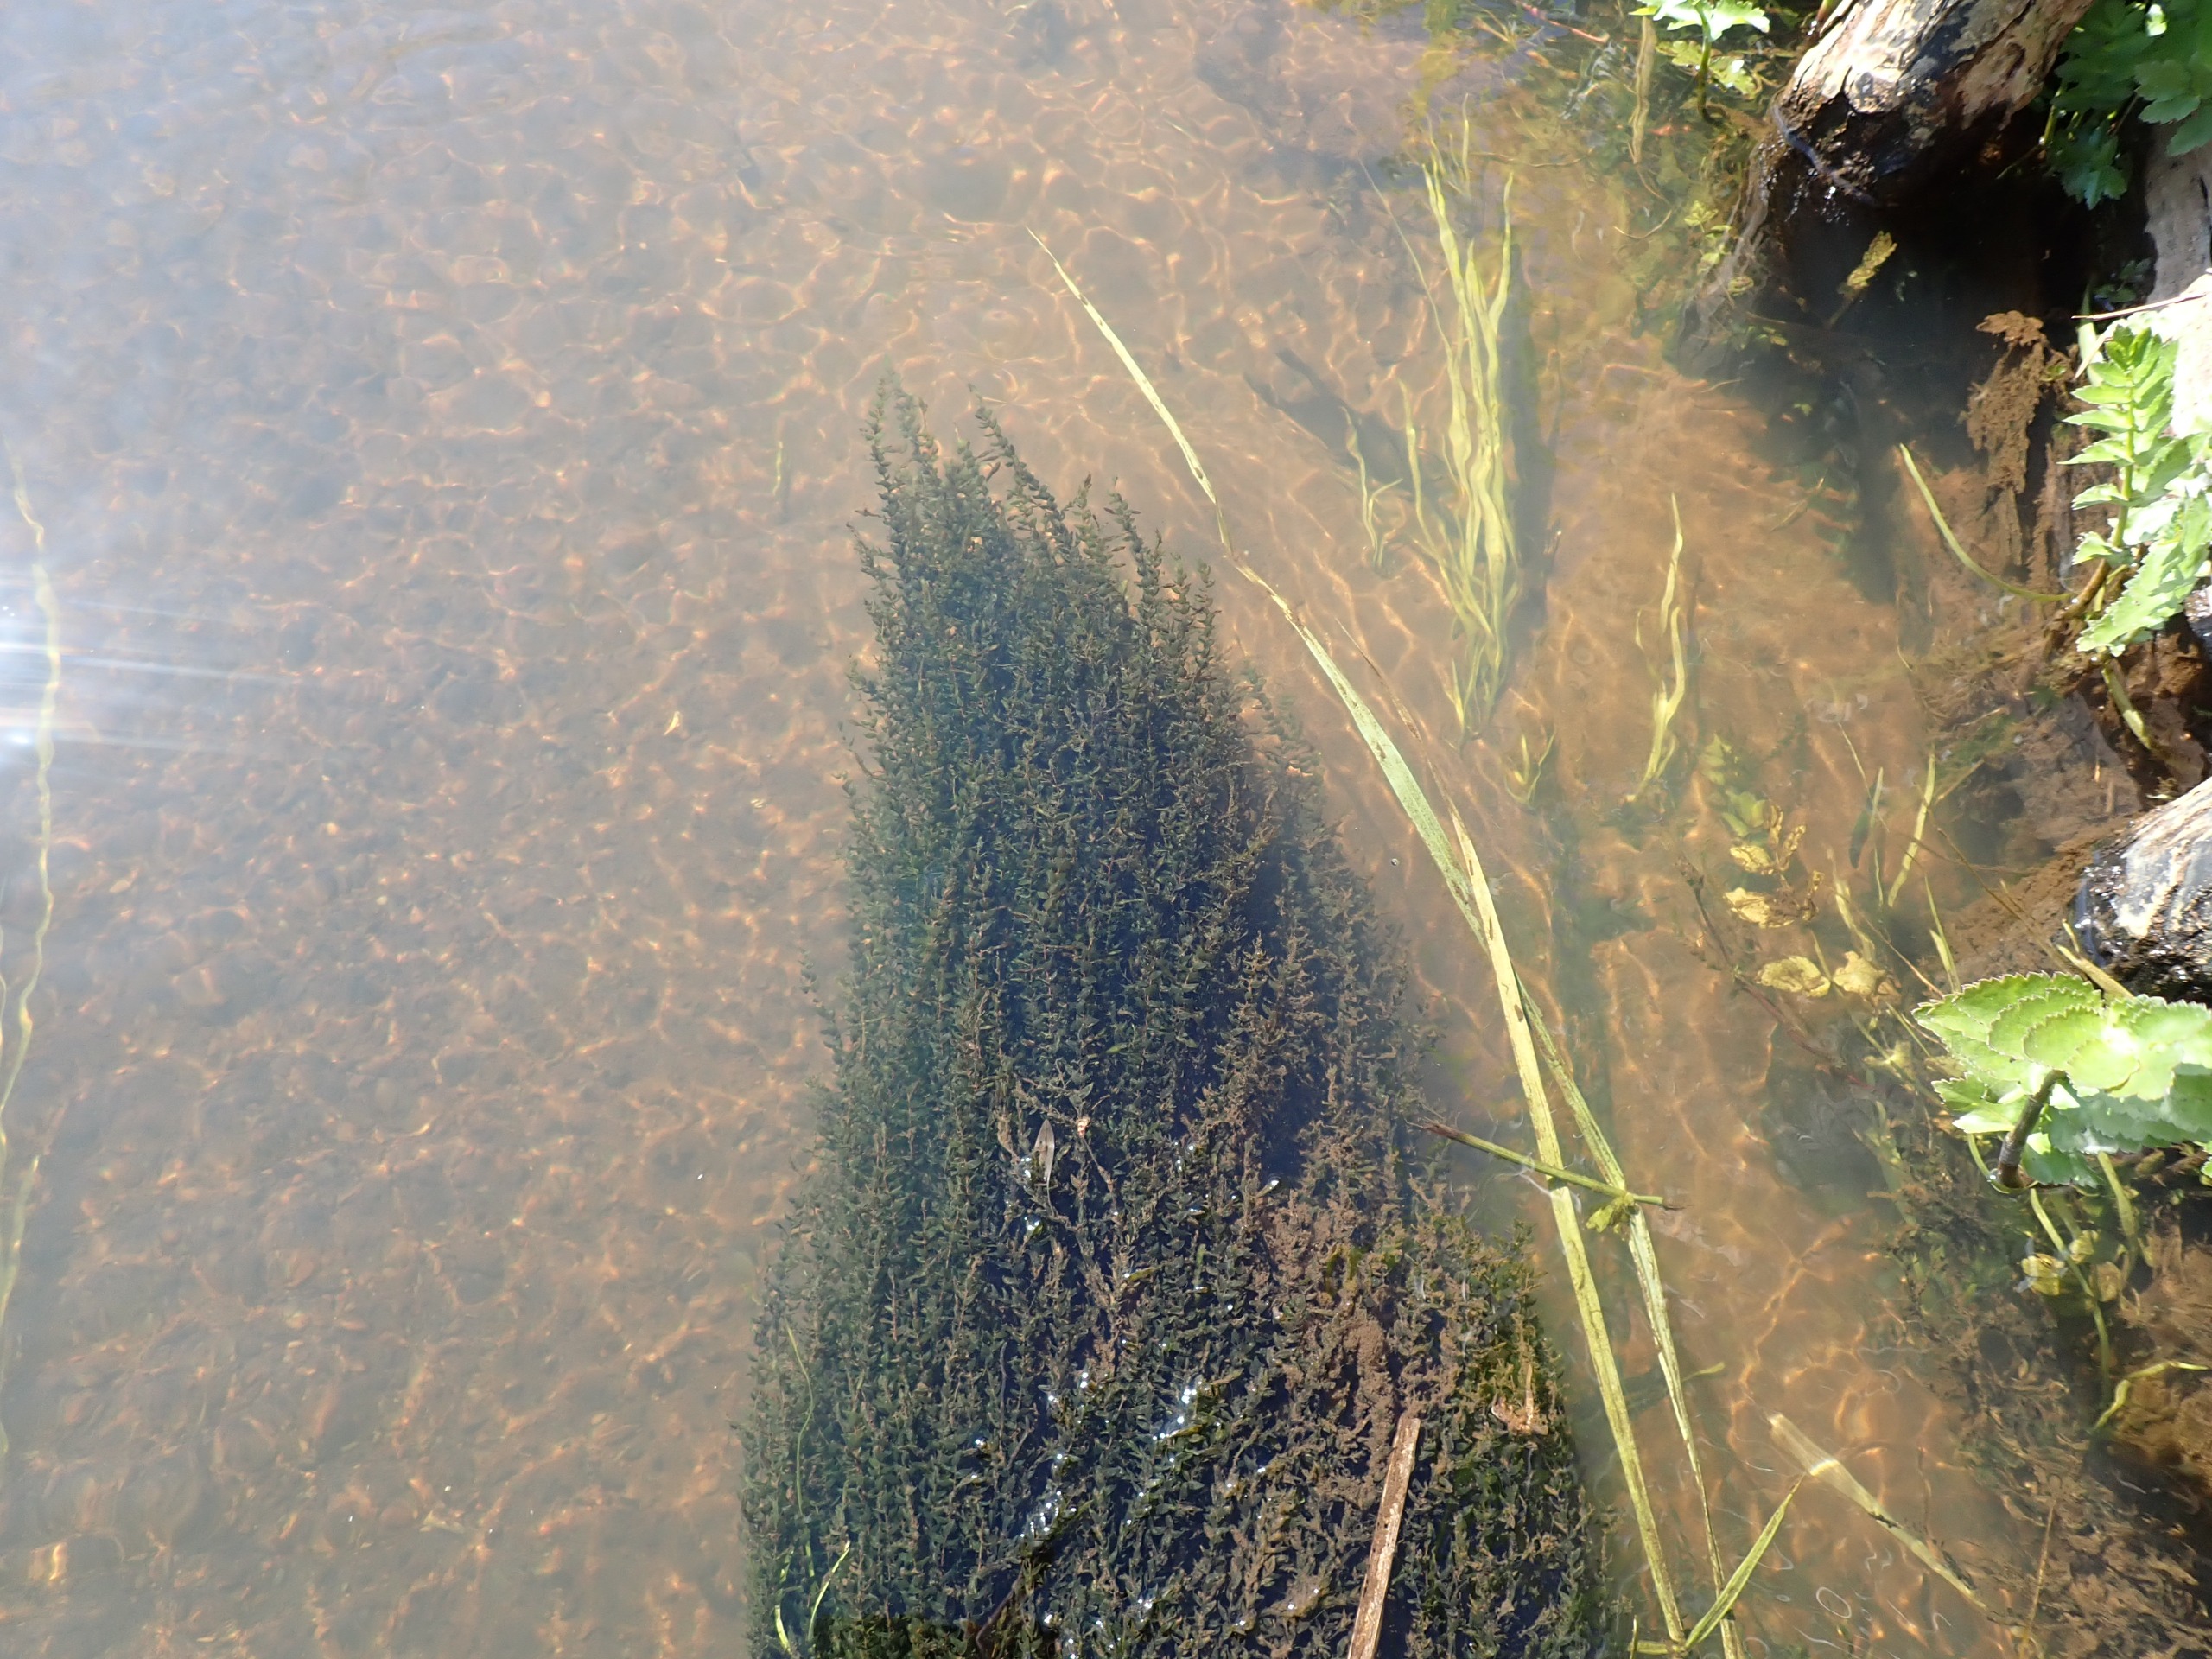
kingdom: Plantae
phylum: Bryophyta
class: Bryopsida
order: Hypnales
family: Fontinalaceae
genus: Fontinalis
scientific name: Fontinalis antipyretica
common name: Stor kildemos
